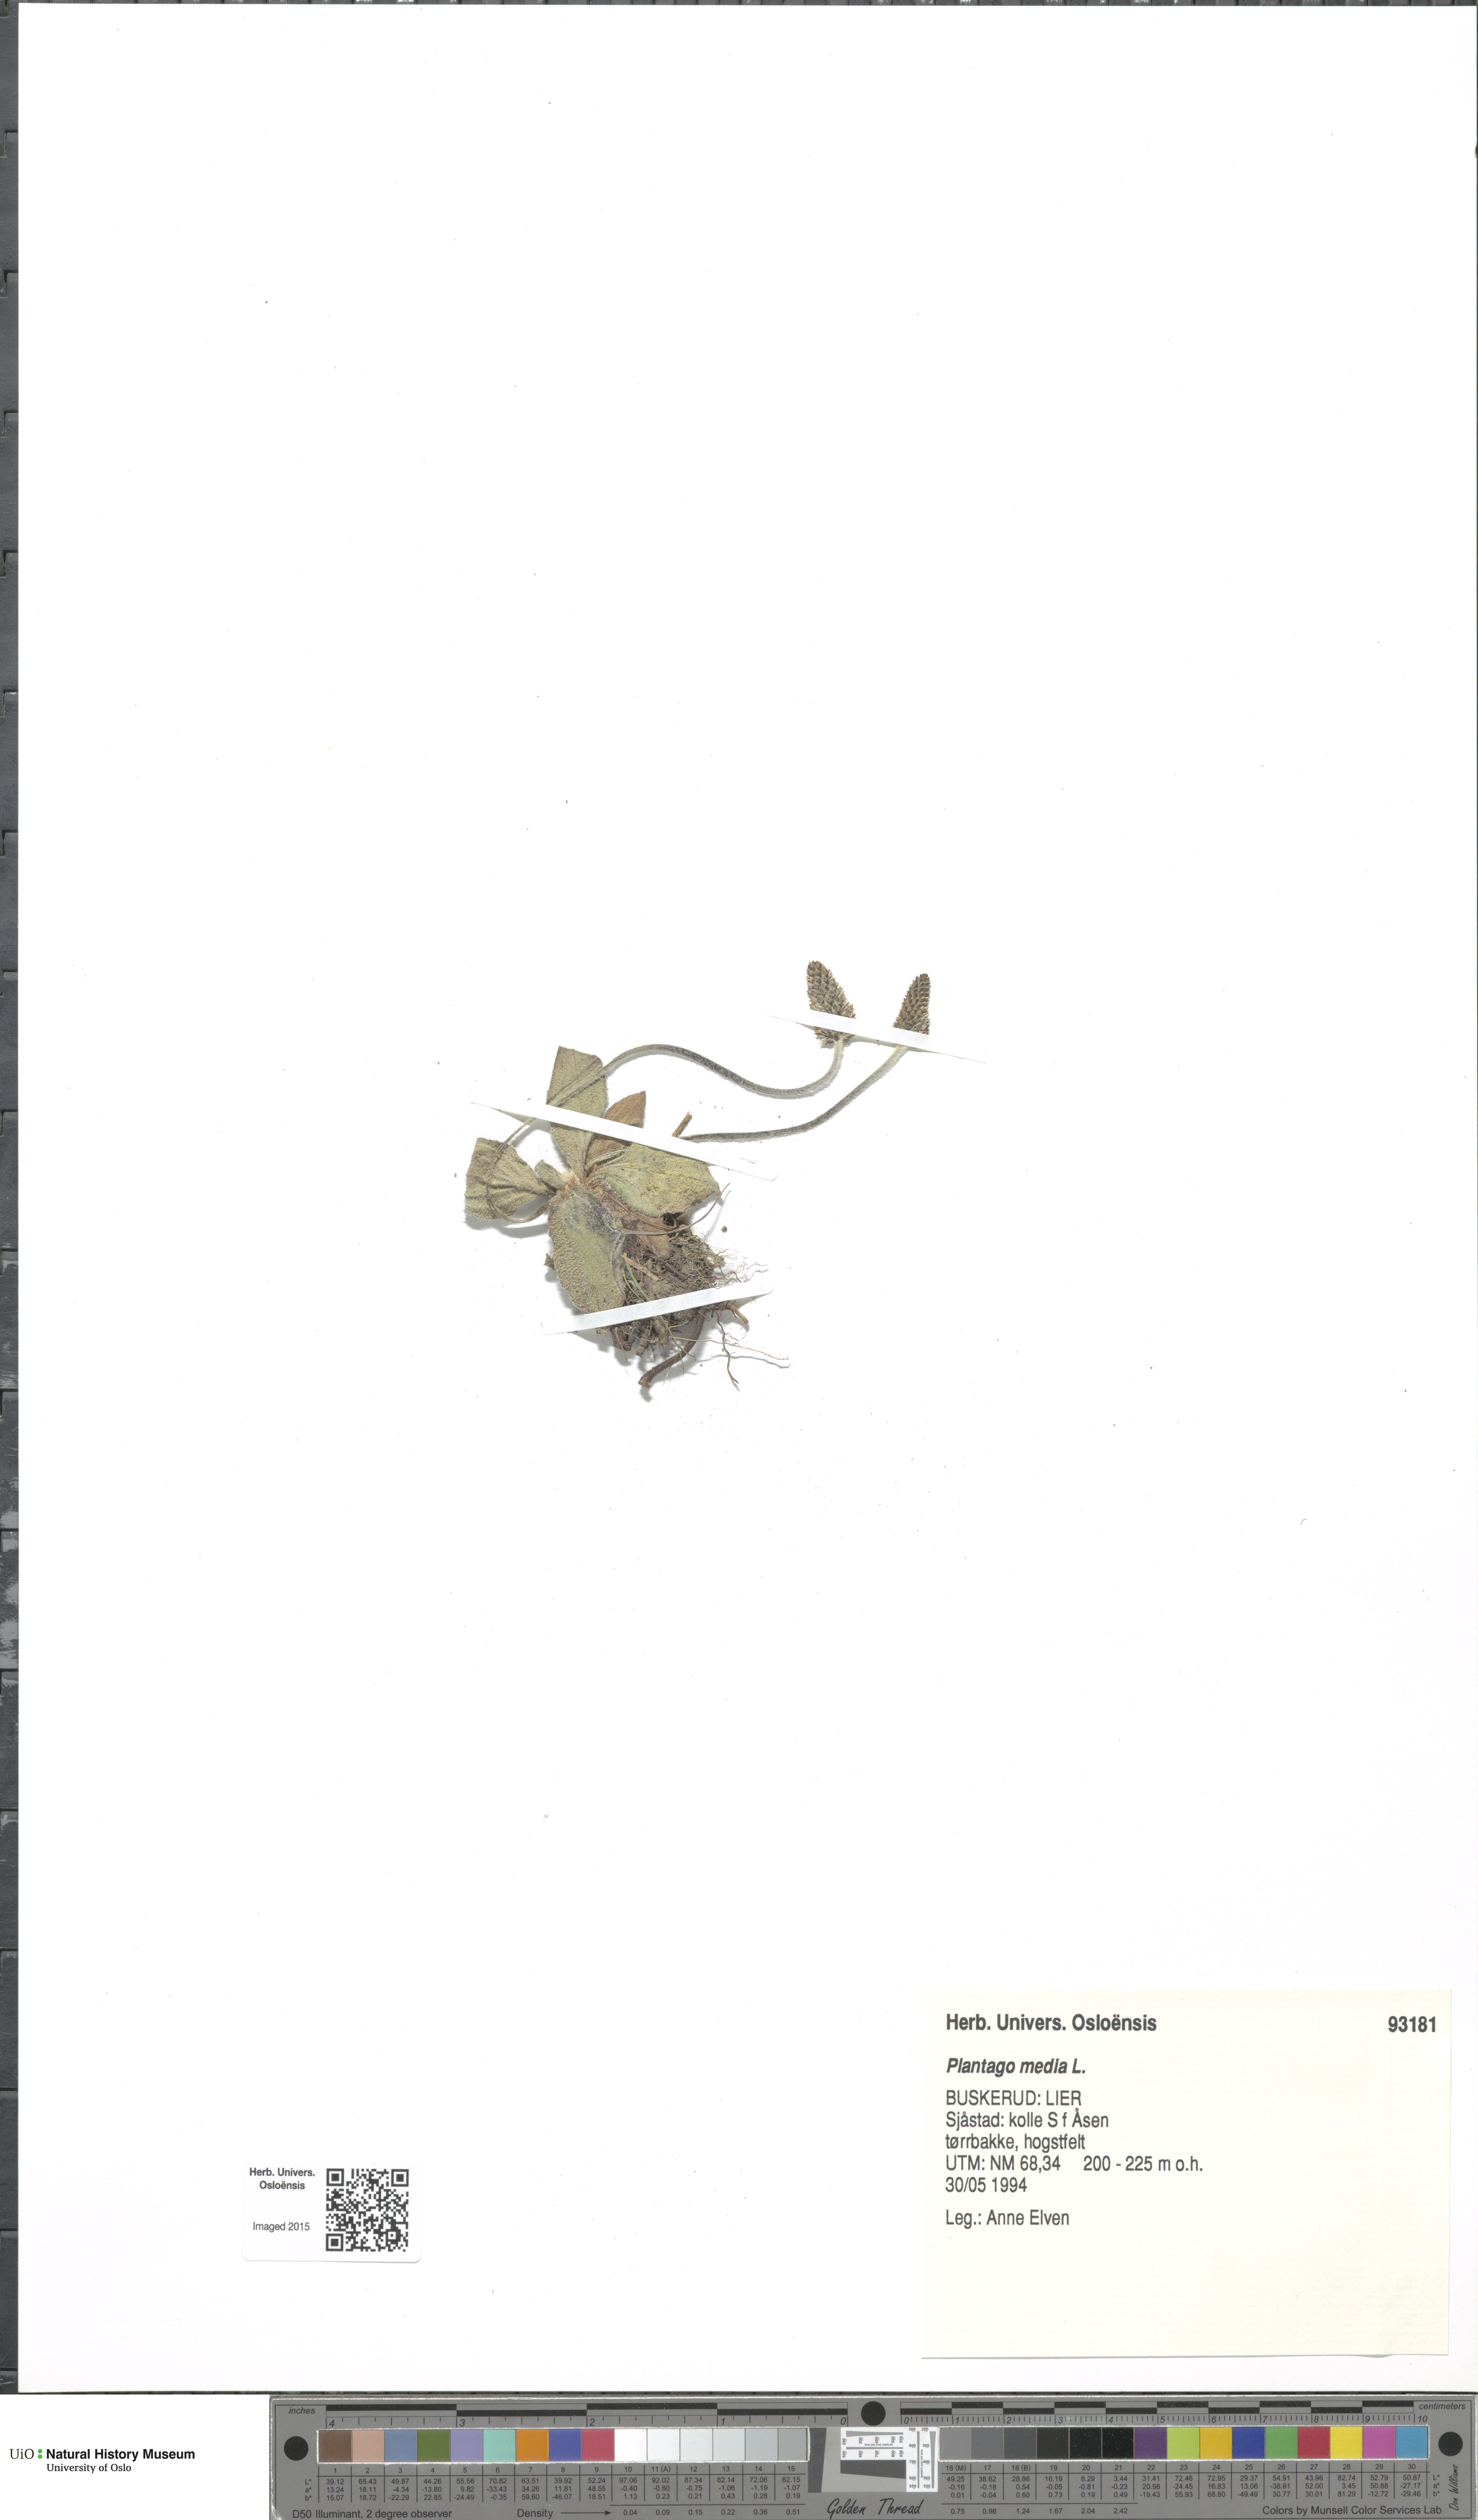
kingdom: Plantae
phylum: Tracheophyta
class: Magnoliopsida
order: Lamiales
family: Plantaginaceae
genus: Plantago
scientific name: Plantago media
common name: Hoary plantain
